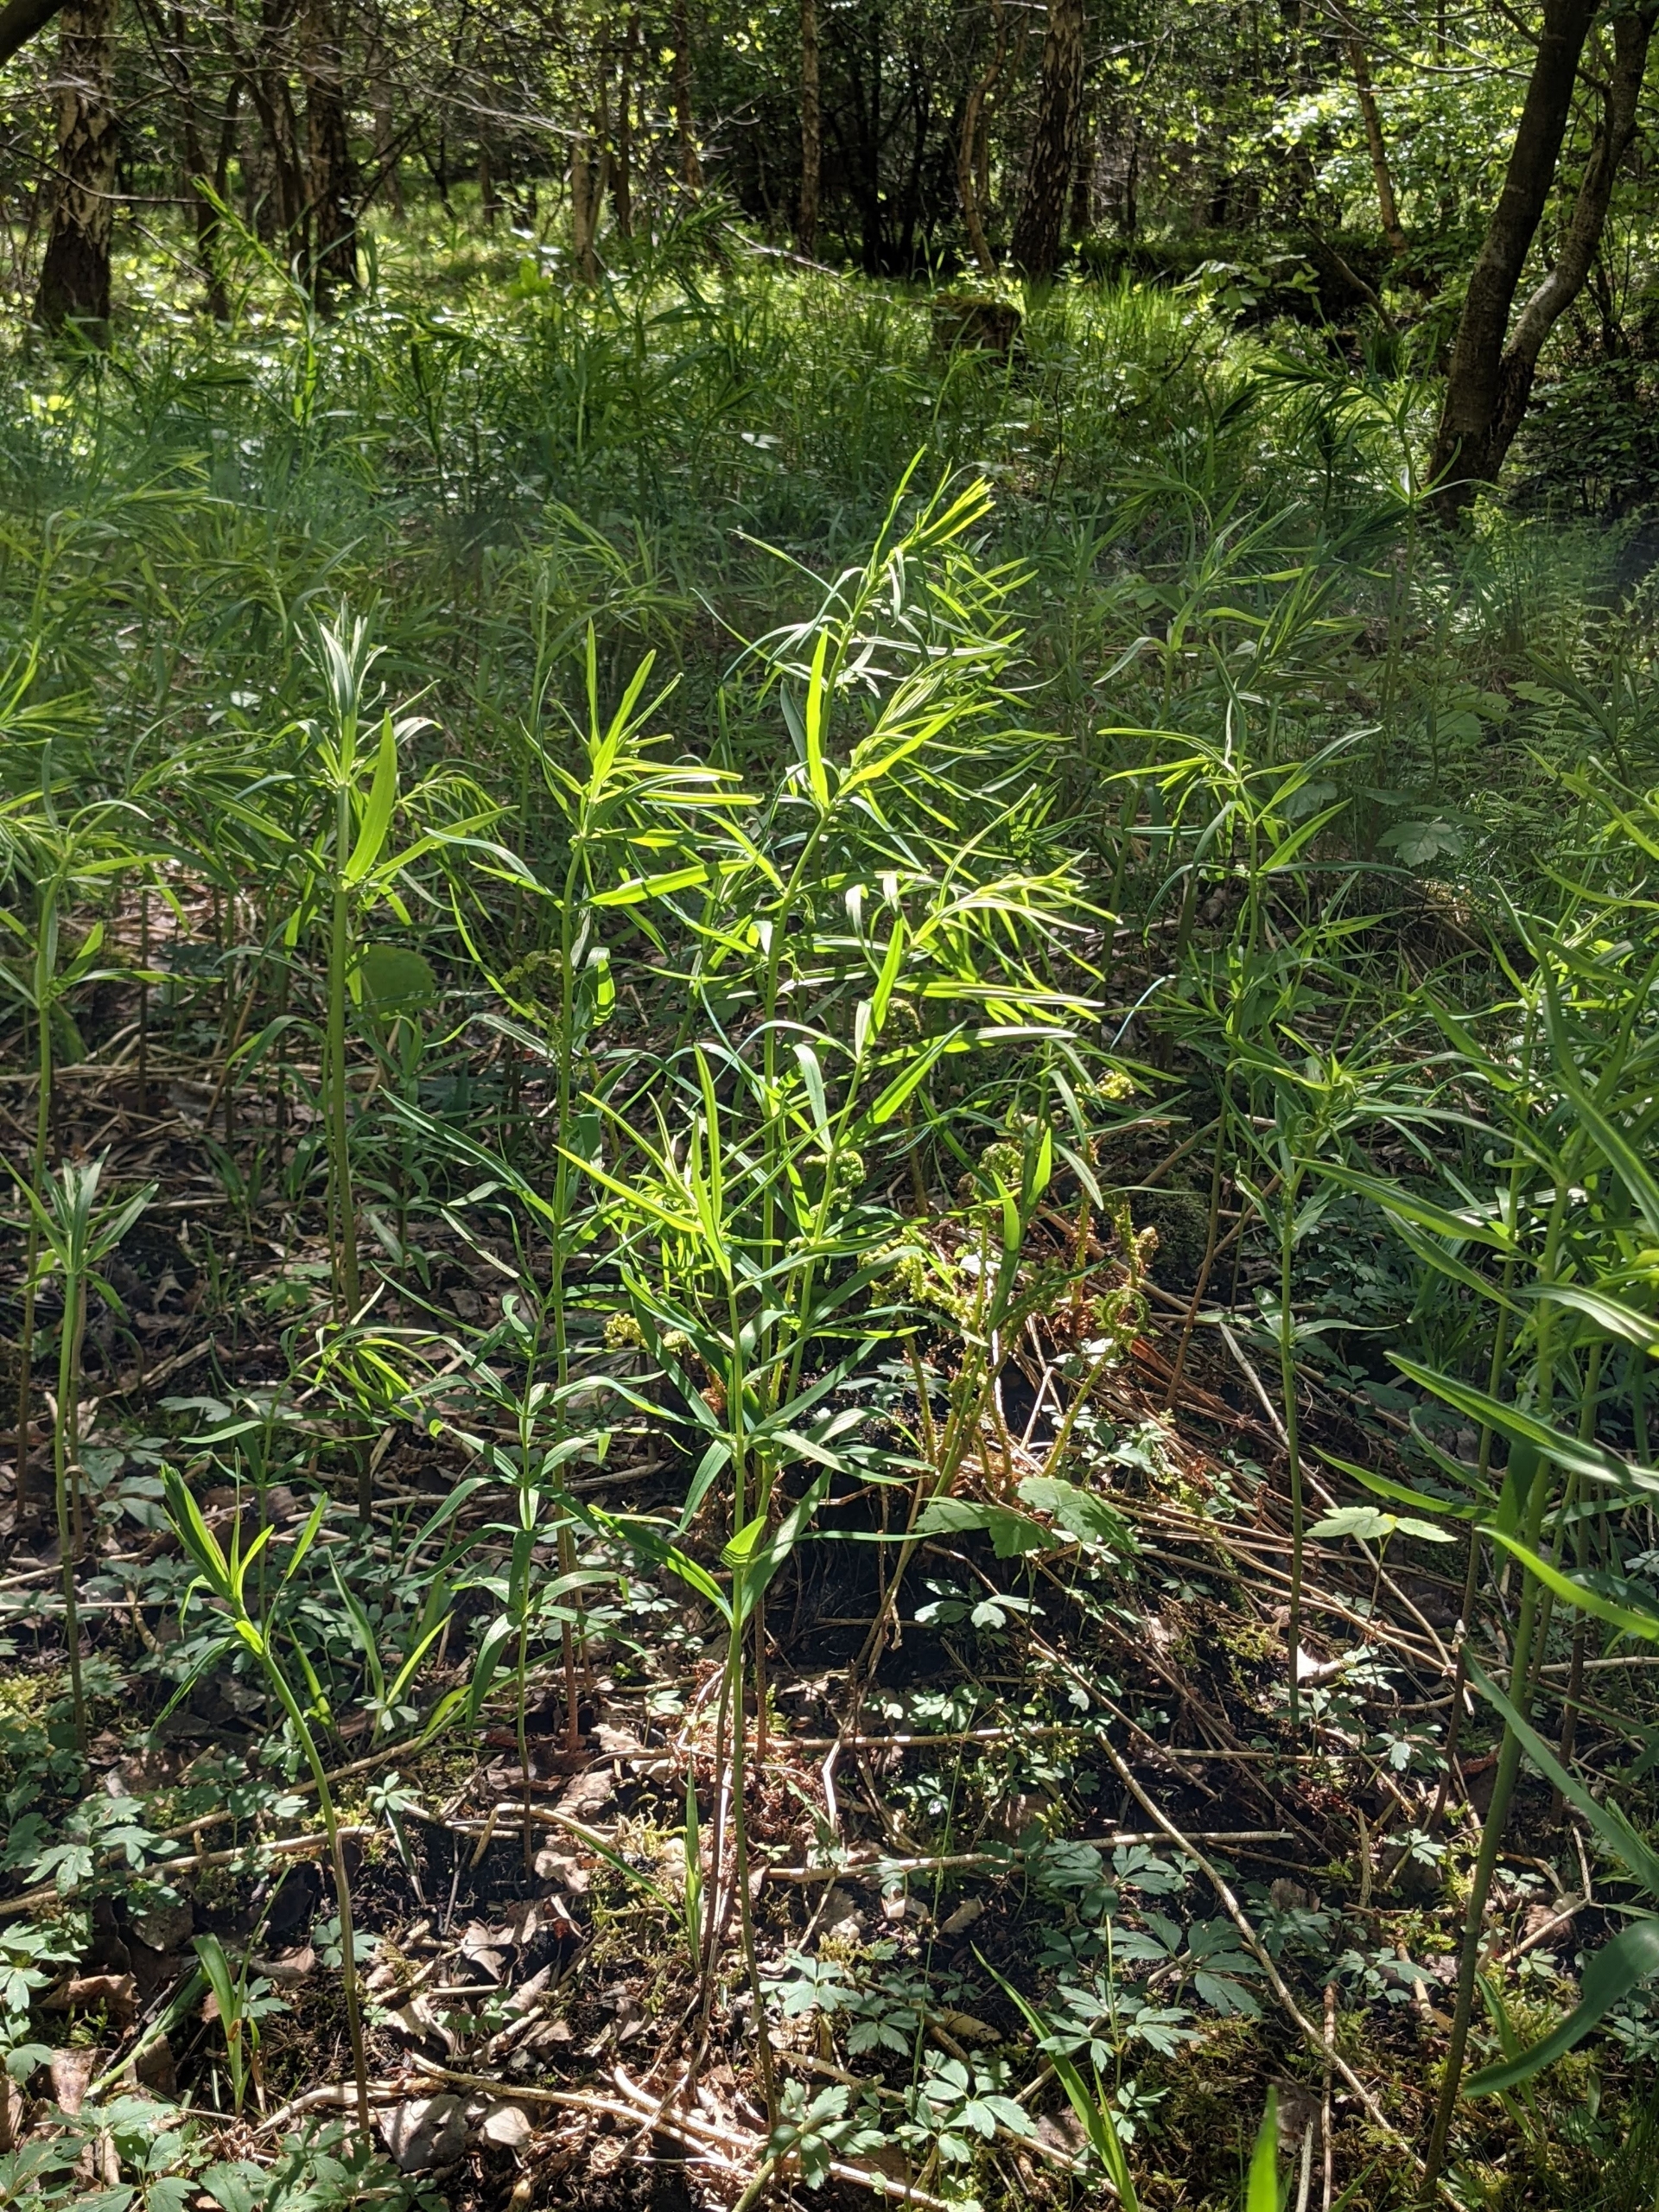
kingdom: Plantae
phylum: Tracheophyta
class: Liliopsida
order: Asparagales
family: Asparagaceae
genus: Polygonatum
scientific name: Polygonatum verticillatum
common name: Krans-konval
